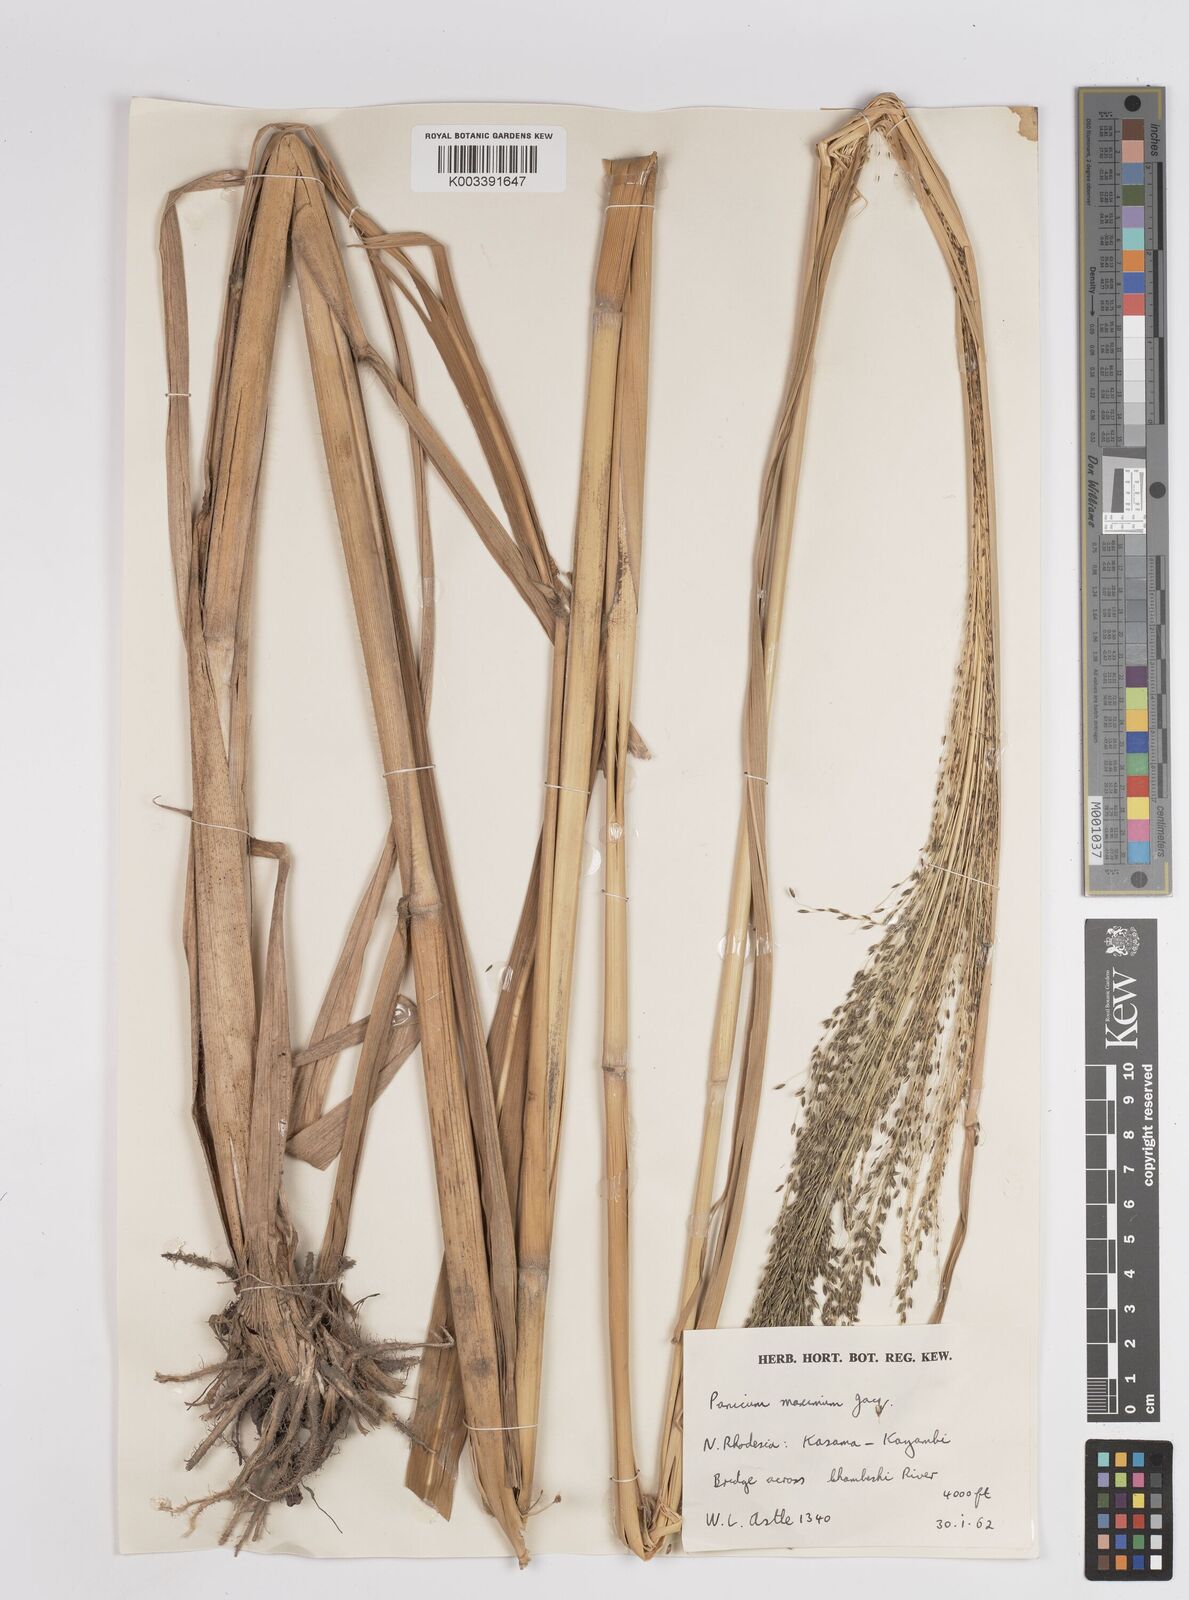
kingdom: Plantae
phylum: Tracheophyta
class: Liliopsida
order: Poales
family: Poaceae
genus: Megathyrsus
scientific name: Megathyrsus maximus
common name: Guineagrass
